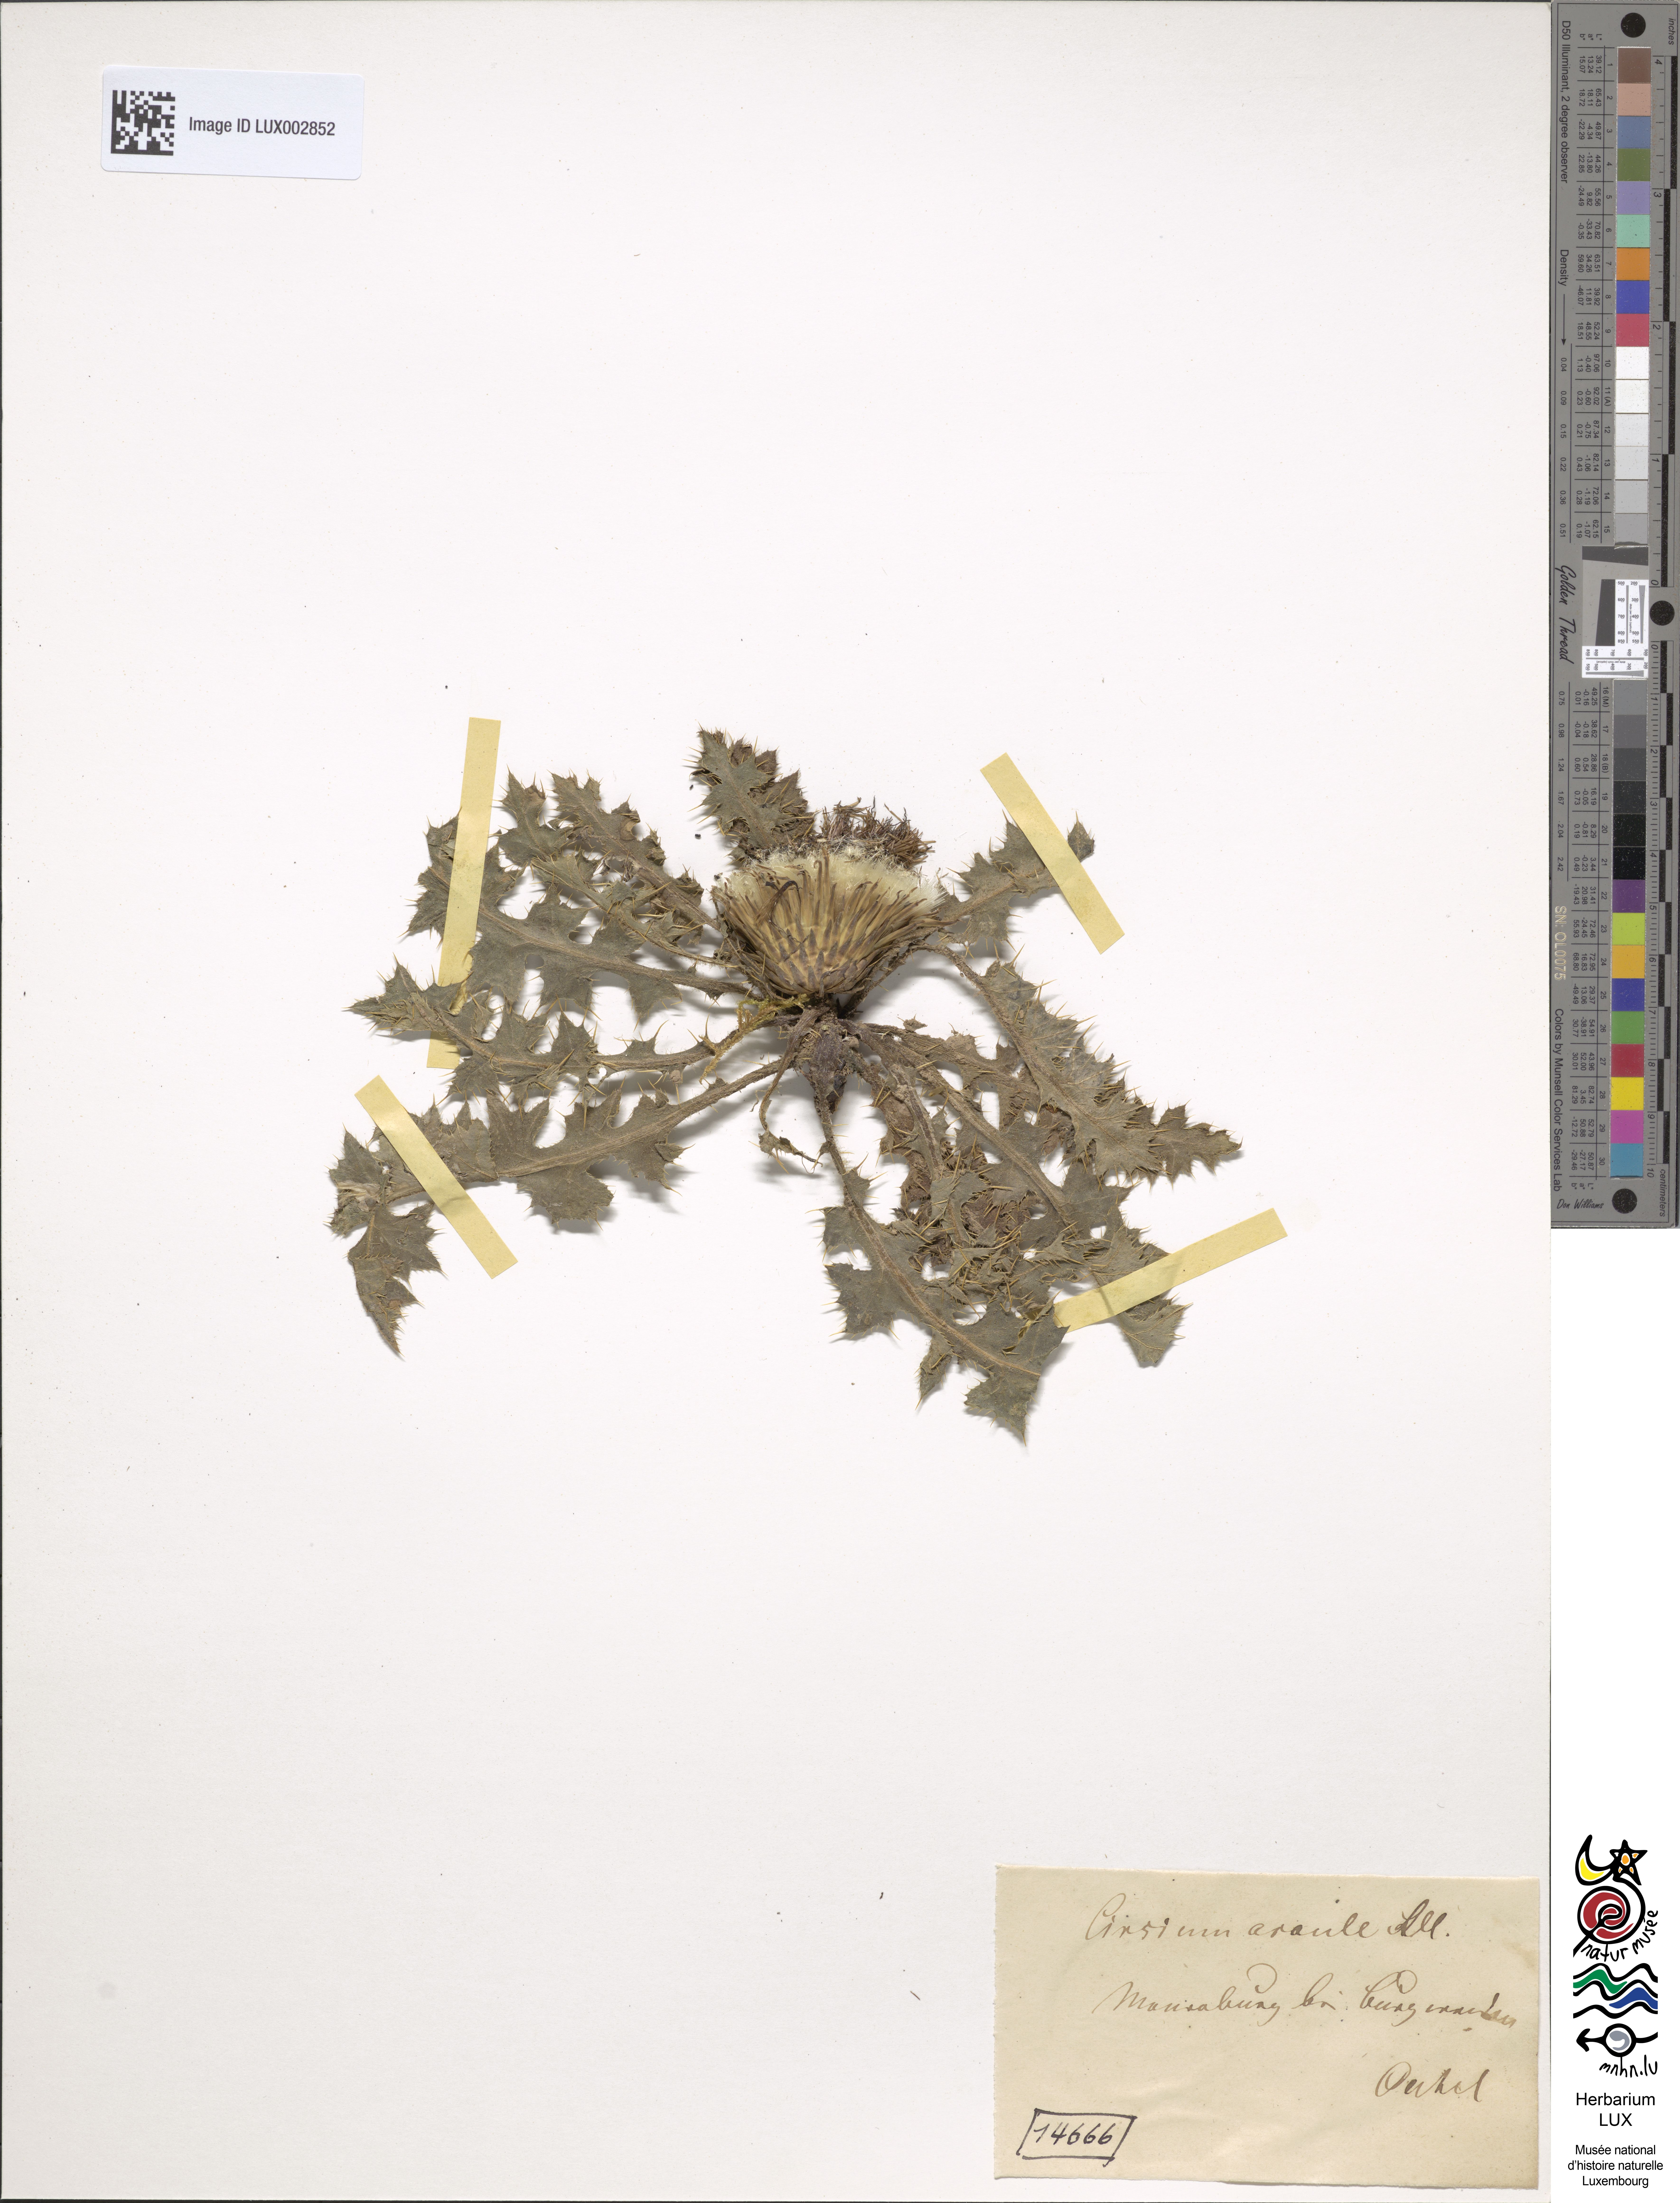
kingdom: Plantae
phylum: Tracheophyta
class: Magnoliopsida
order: Asterales
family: Asteraceae
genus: Cirsium
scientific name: Cirsium acaule
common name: Dwarf thistle
